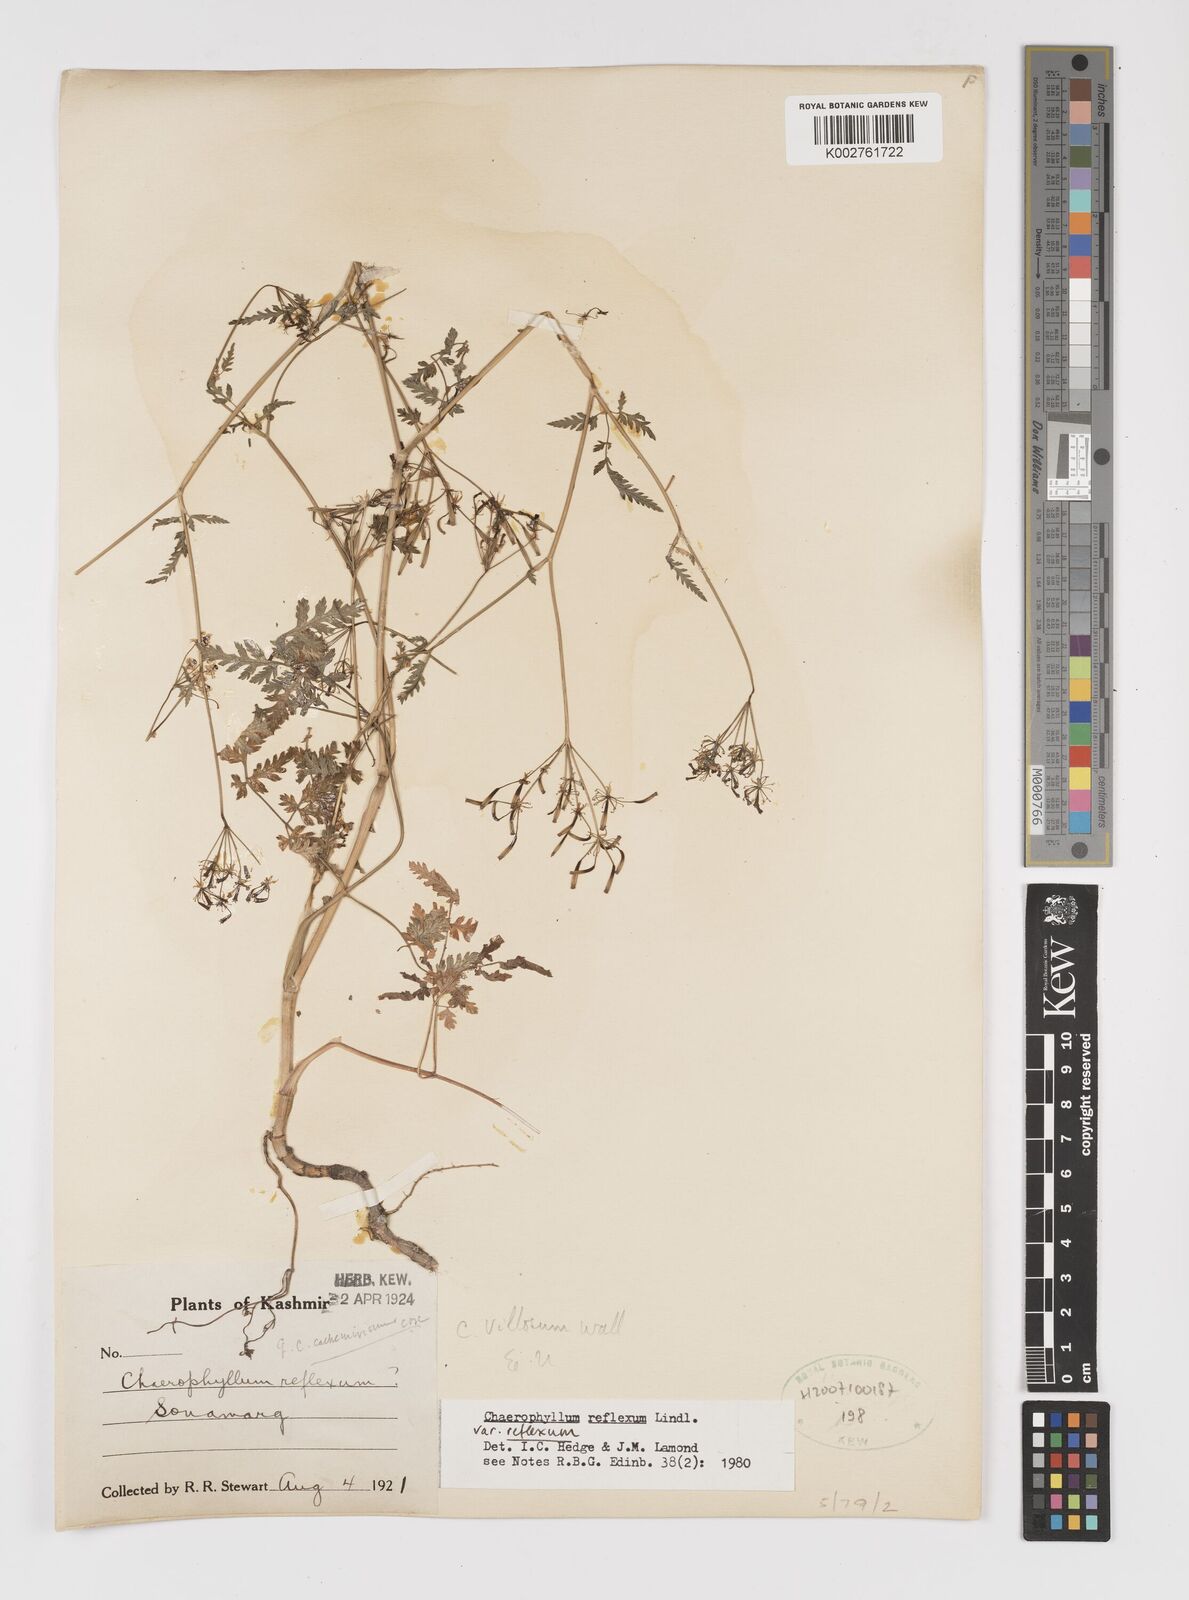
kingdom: Plantae
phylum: Tracheophyta
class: Magnoliopsida
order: Apiales
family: Apiaceae
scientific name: Apiaceae
